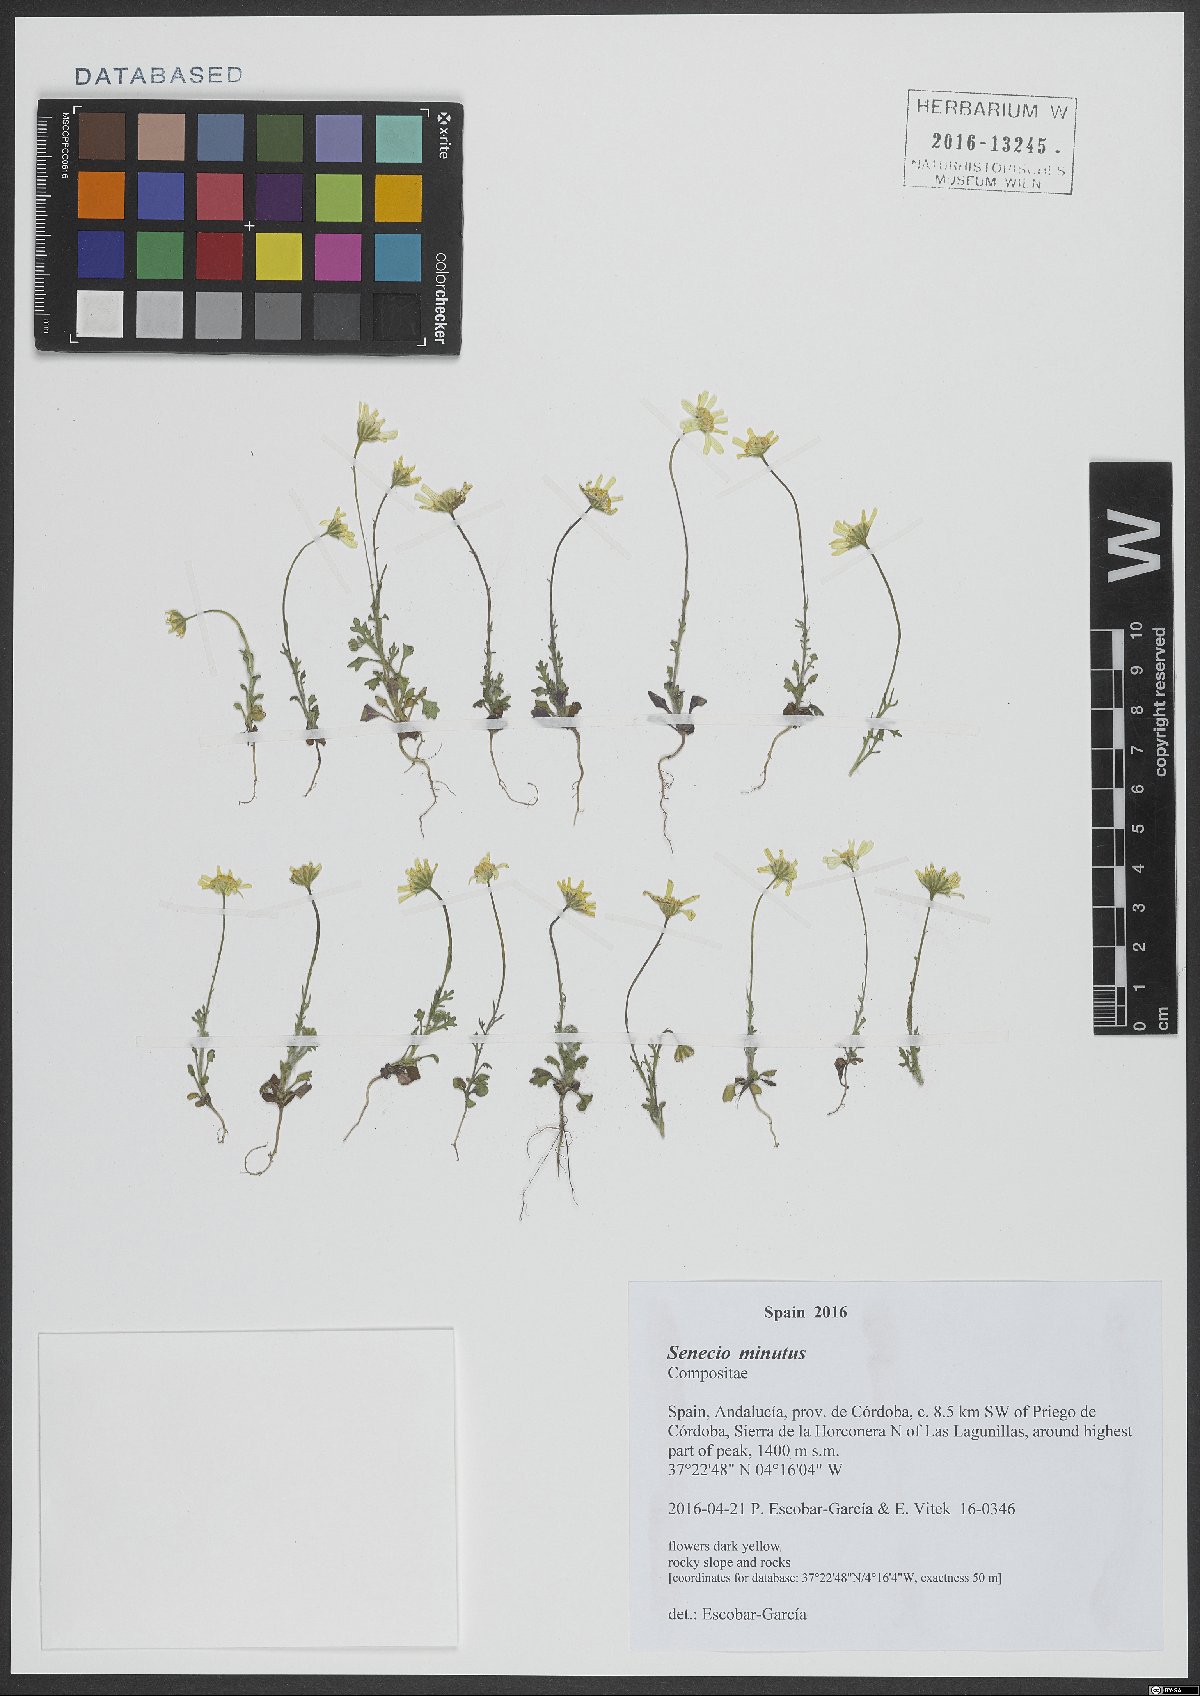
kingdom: Plantae
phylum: Tracheophyta
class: Magnoliopsida
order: Asterales
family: Asteraceae
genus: Jacobaea
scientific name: Jacobaea minuta
